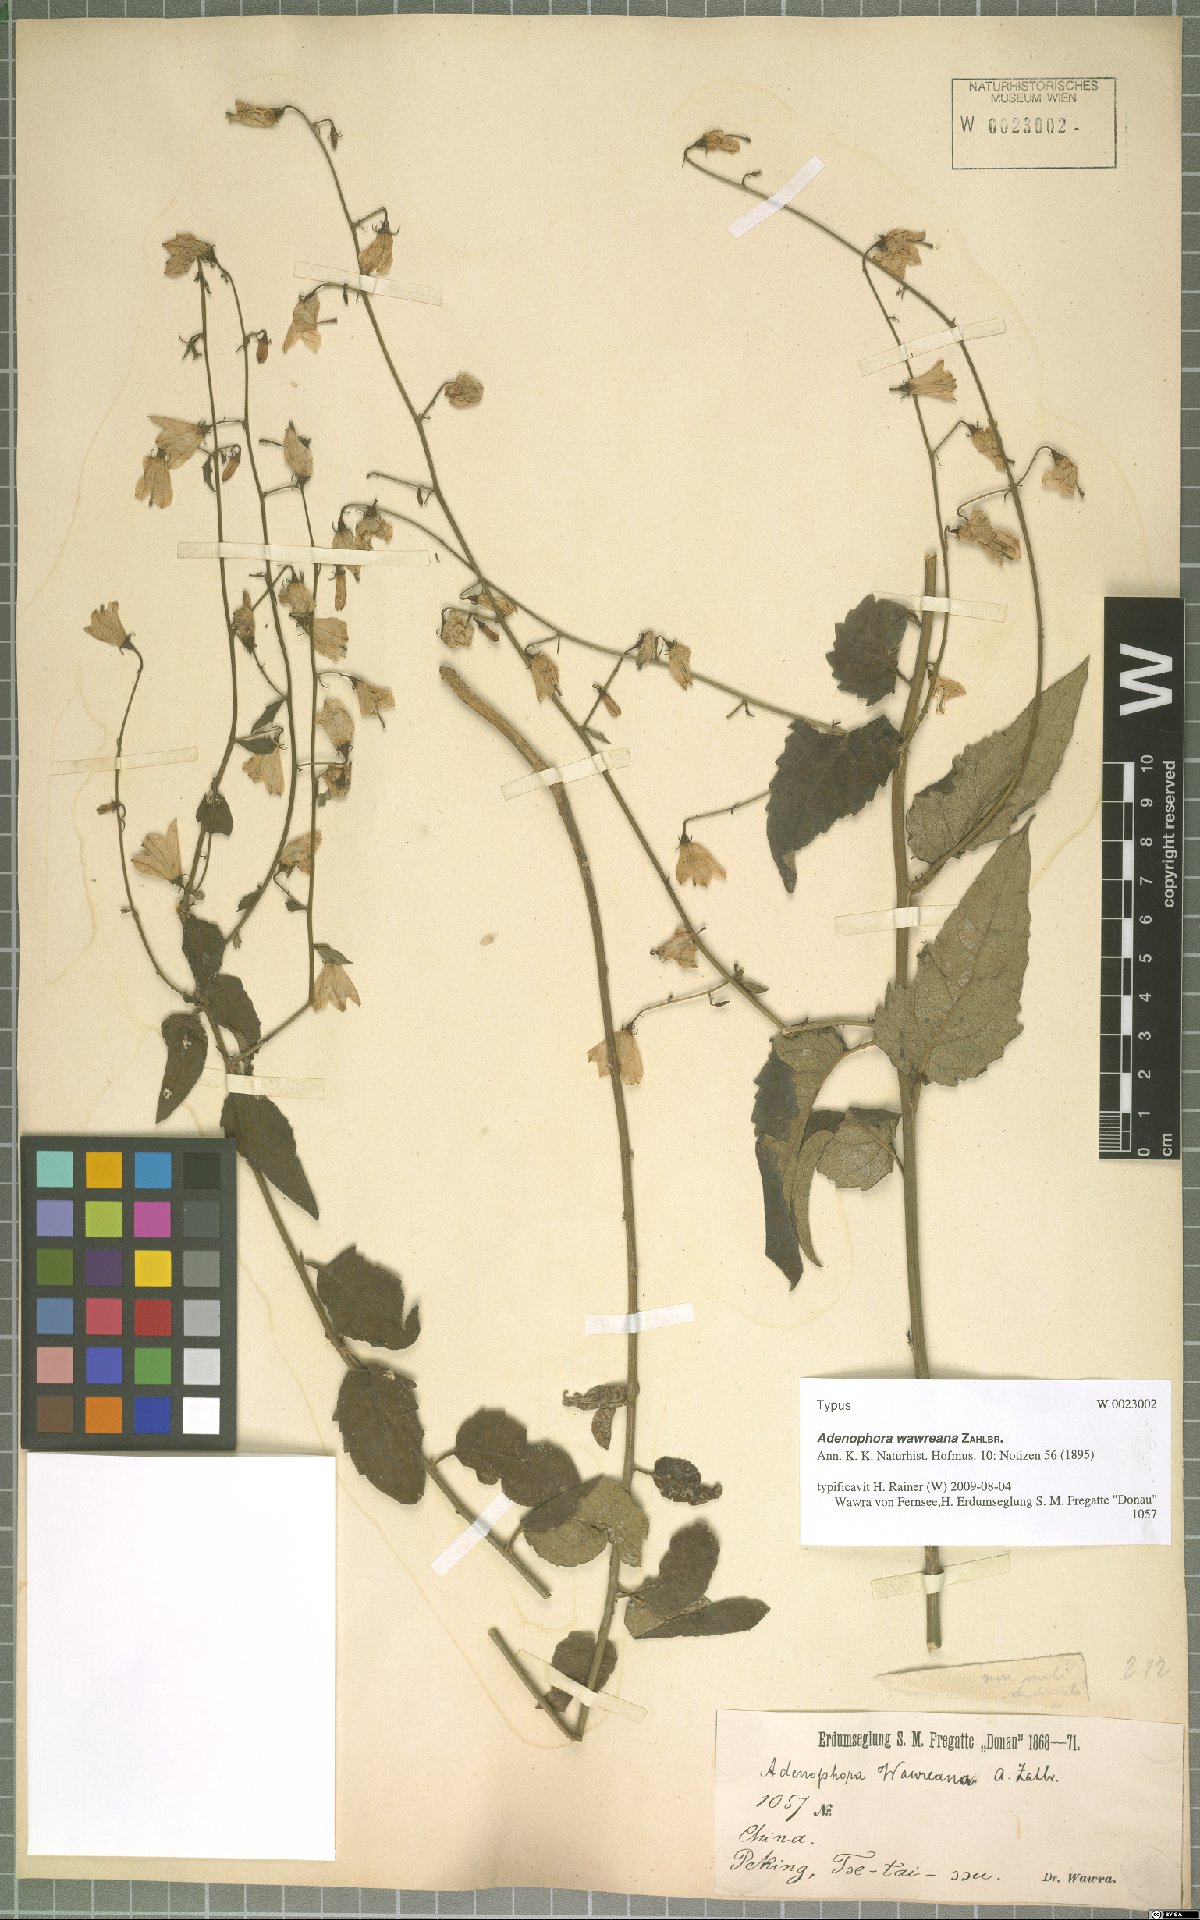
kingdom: Plantae
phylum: Tracheophyta
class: Magnoliopsida
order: Asterales
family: Campanulaceae
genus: Adenophora
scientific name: Adenophora potaninii
